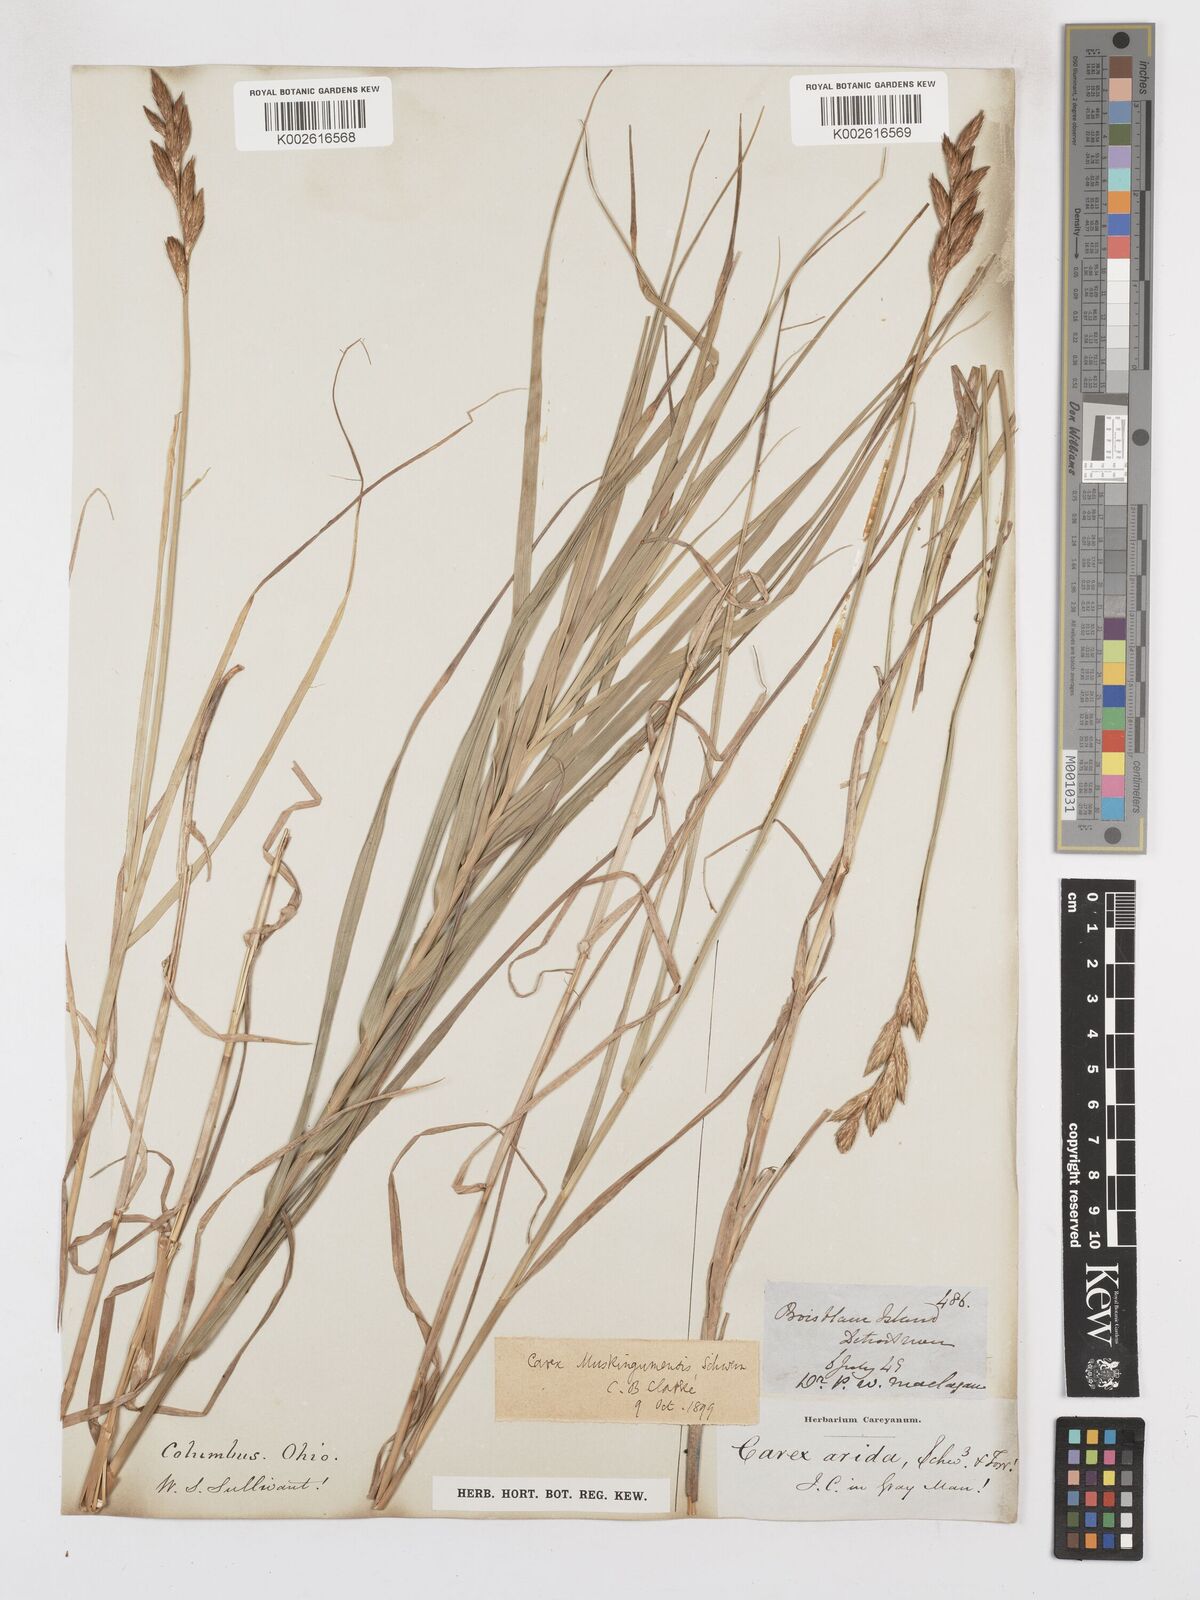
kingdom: Plantae
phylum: Tracheophyta
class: Liliopsida
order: Poales
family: Cyperaceae
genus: Carex
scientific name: Carex muskingumensis
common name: Muskingum sedge
